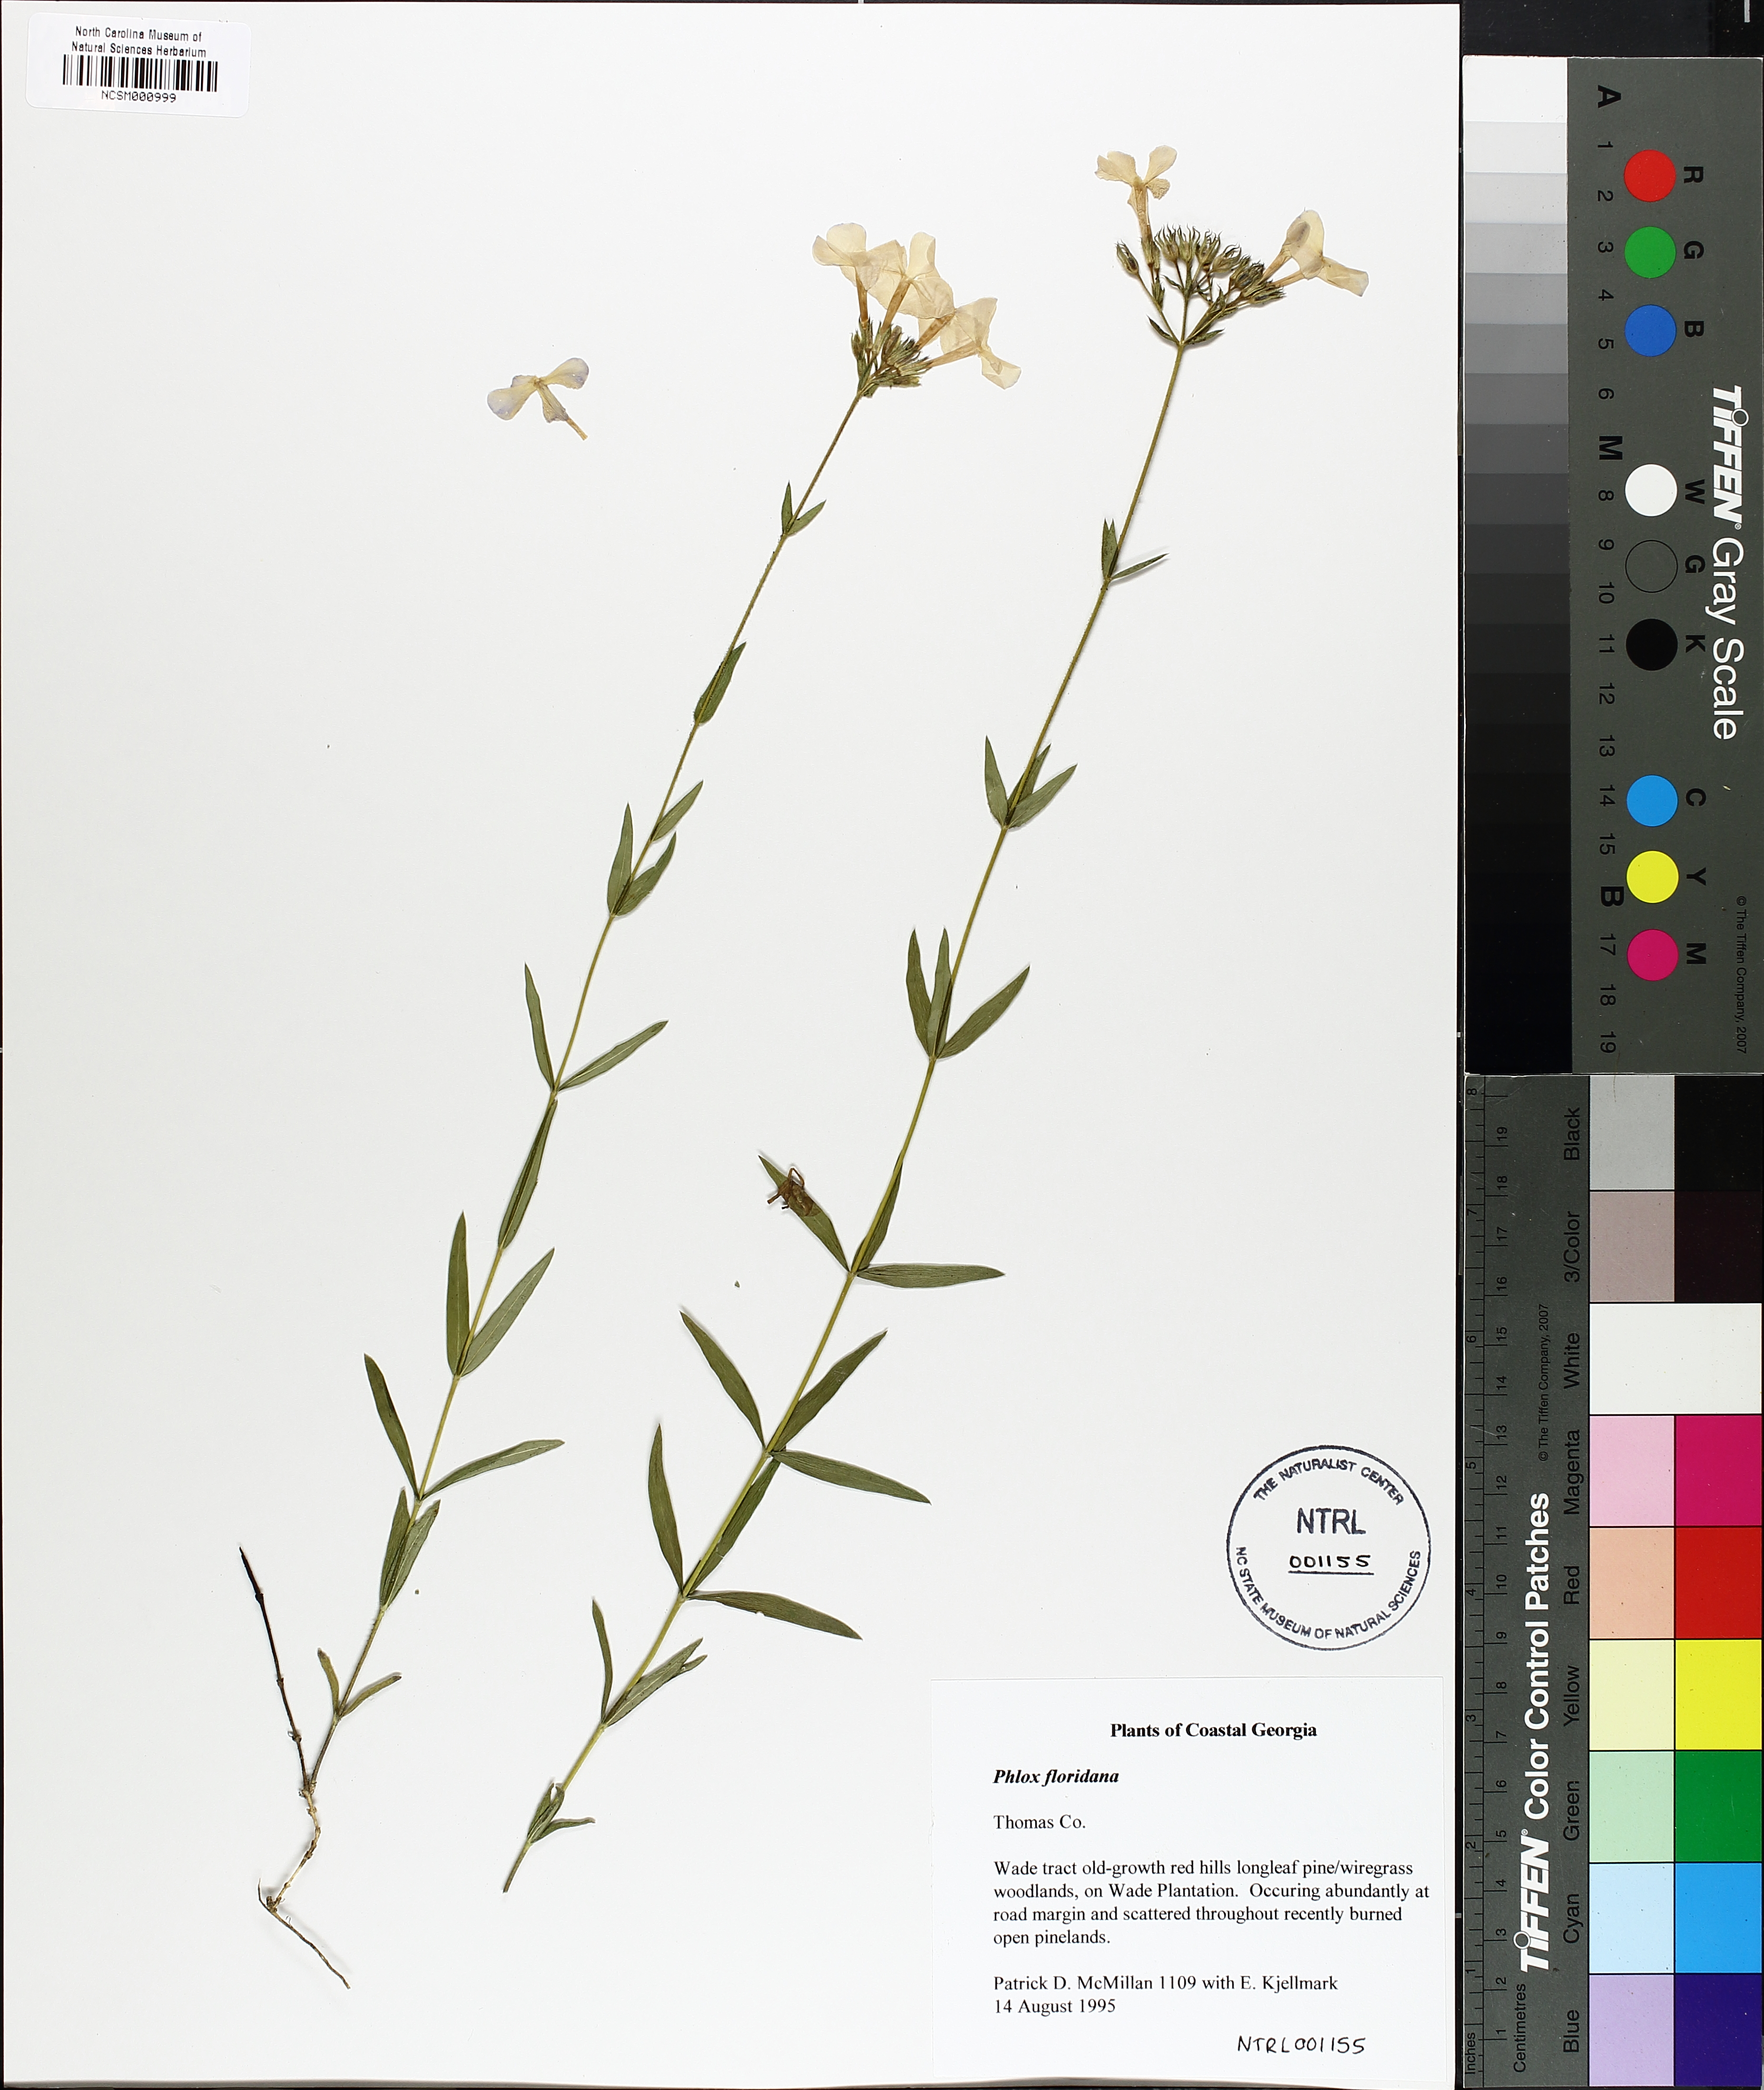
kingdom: Plantae
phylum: Tracheophyta
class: Magnoliopsida
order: Ericales
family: Polemoniaceae
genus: Phlox
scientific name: Phlox floridana
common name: Florida phlox
